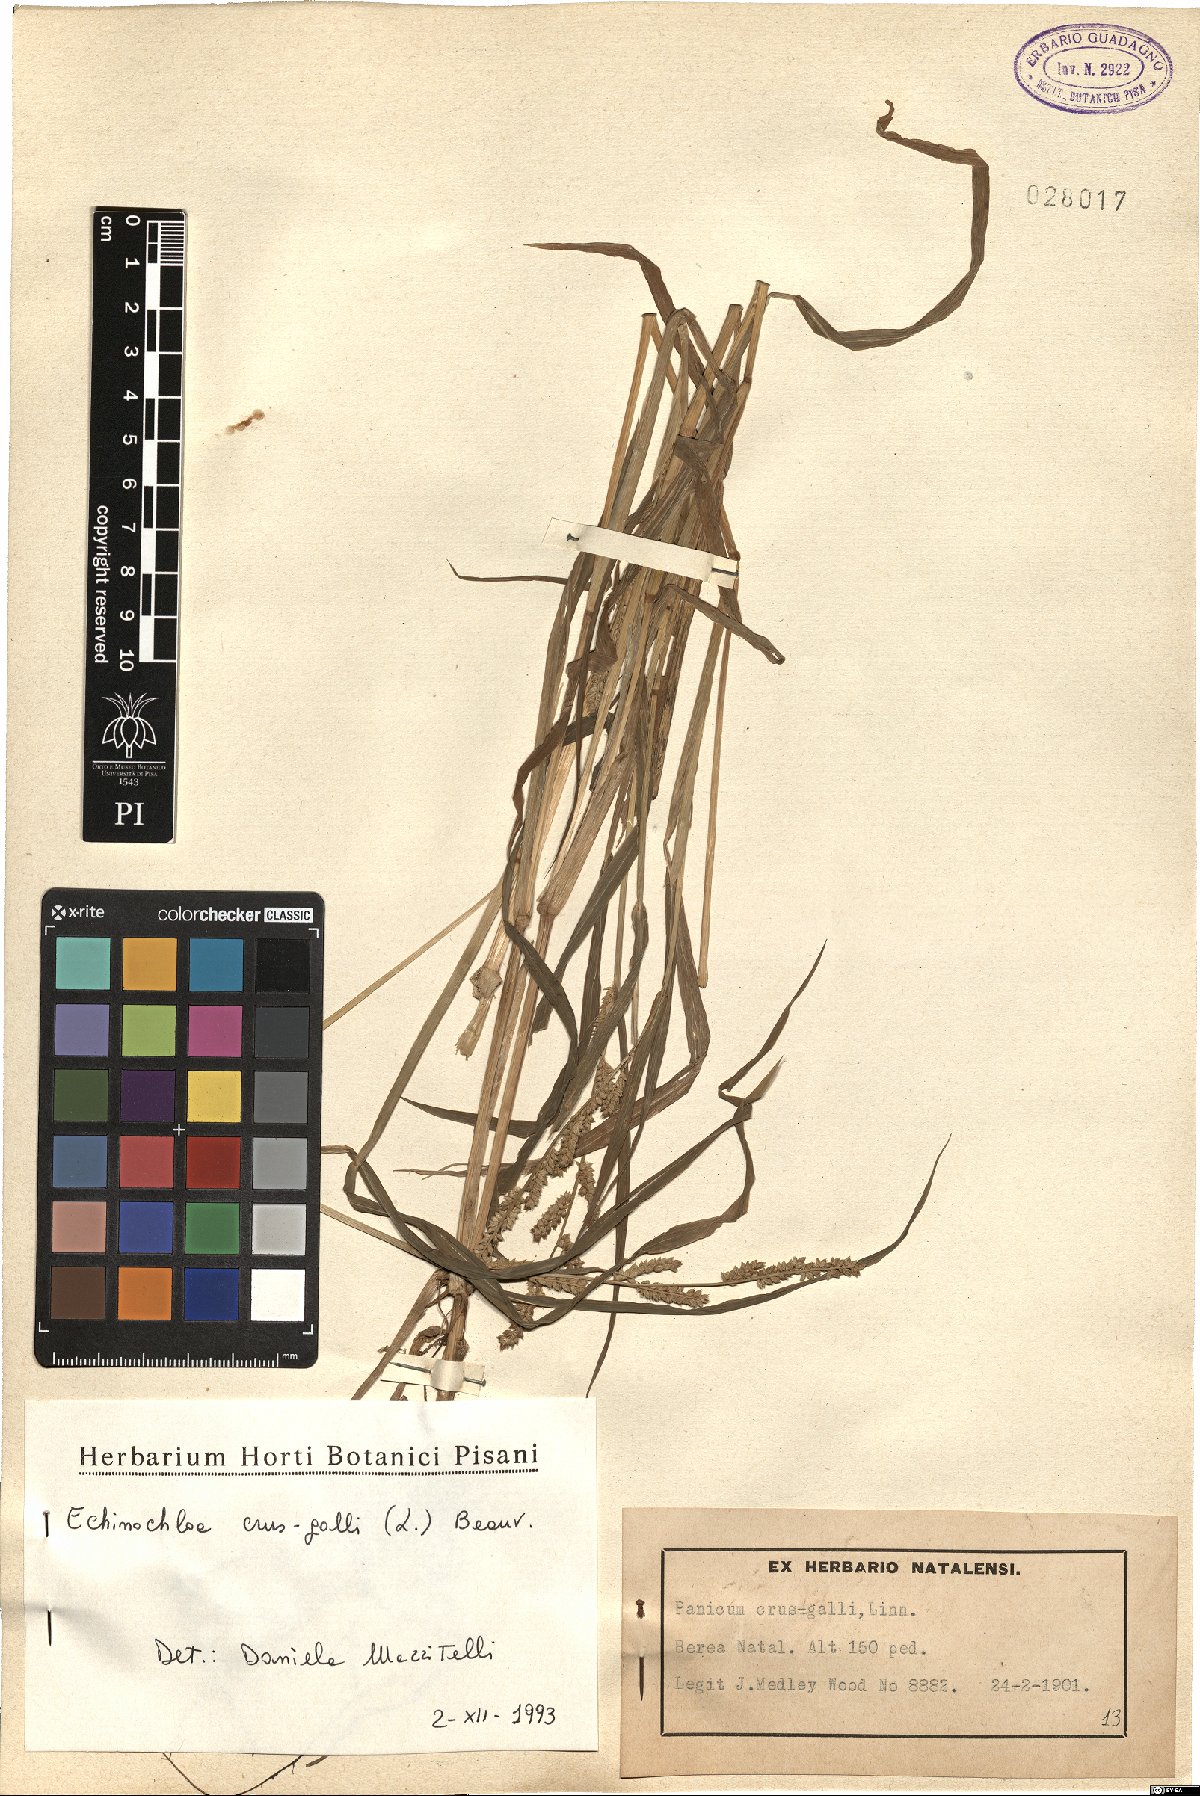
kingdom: Plantae
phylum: Tracheophyta
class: Liliopsida
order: Poales
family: Poaceae
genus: Echinochloa
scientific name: Echinochloa crus-galli
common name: Cockspur
